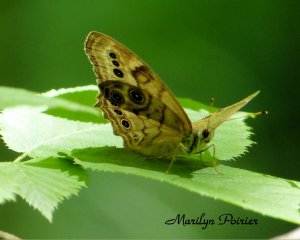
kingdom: Animalia
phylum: Arthropoda
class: Insecta
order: Lepidoptera
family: Nymphalidae
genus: Lethe
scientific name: Lethe anthedon
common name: Northern Pearly-Eye
